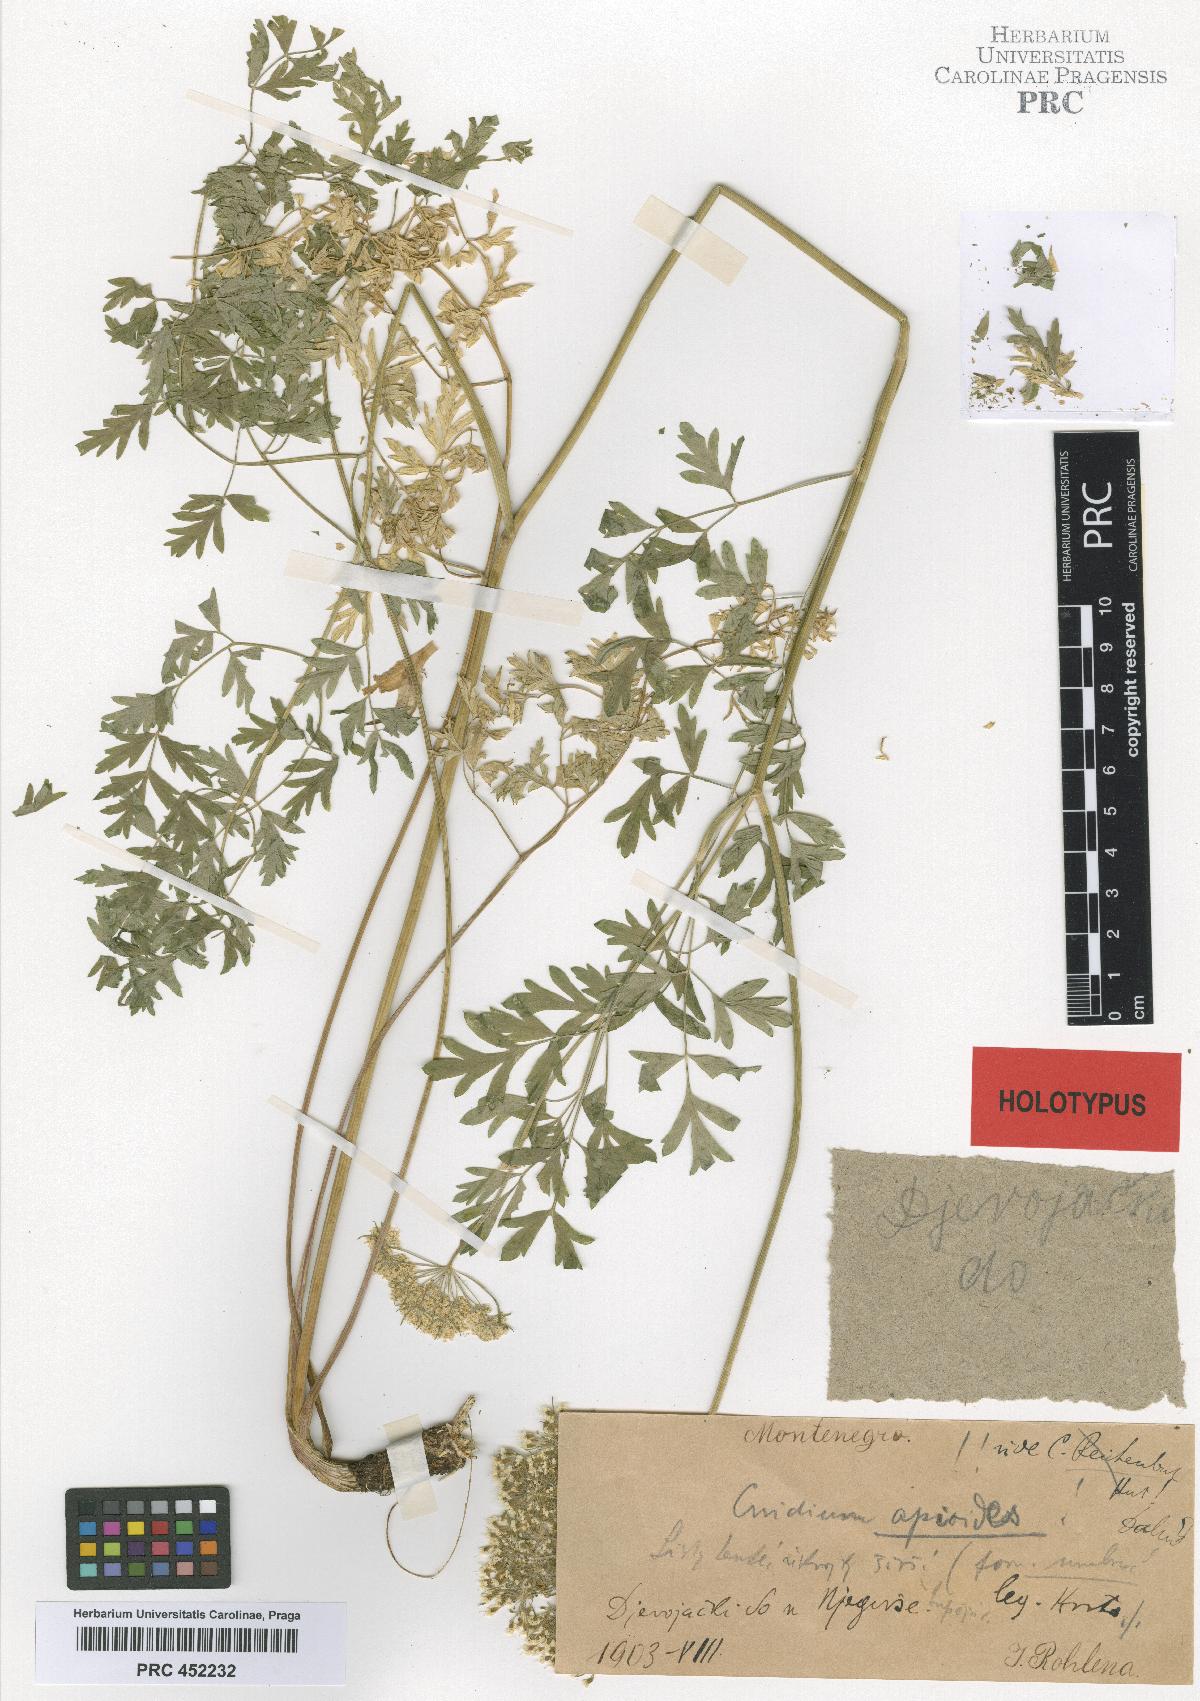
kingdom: Plantae
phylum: Tracheophyta
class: Magnoliopsida
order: Apiales
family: Apiaceae
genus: Katapsuxis
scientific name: Katapsuxis silaifolia
